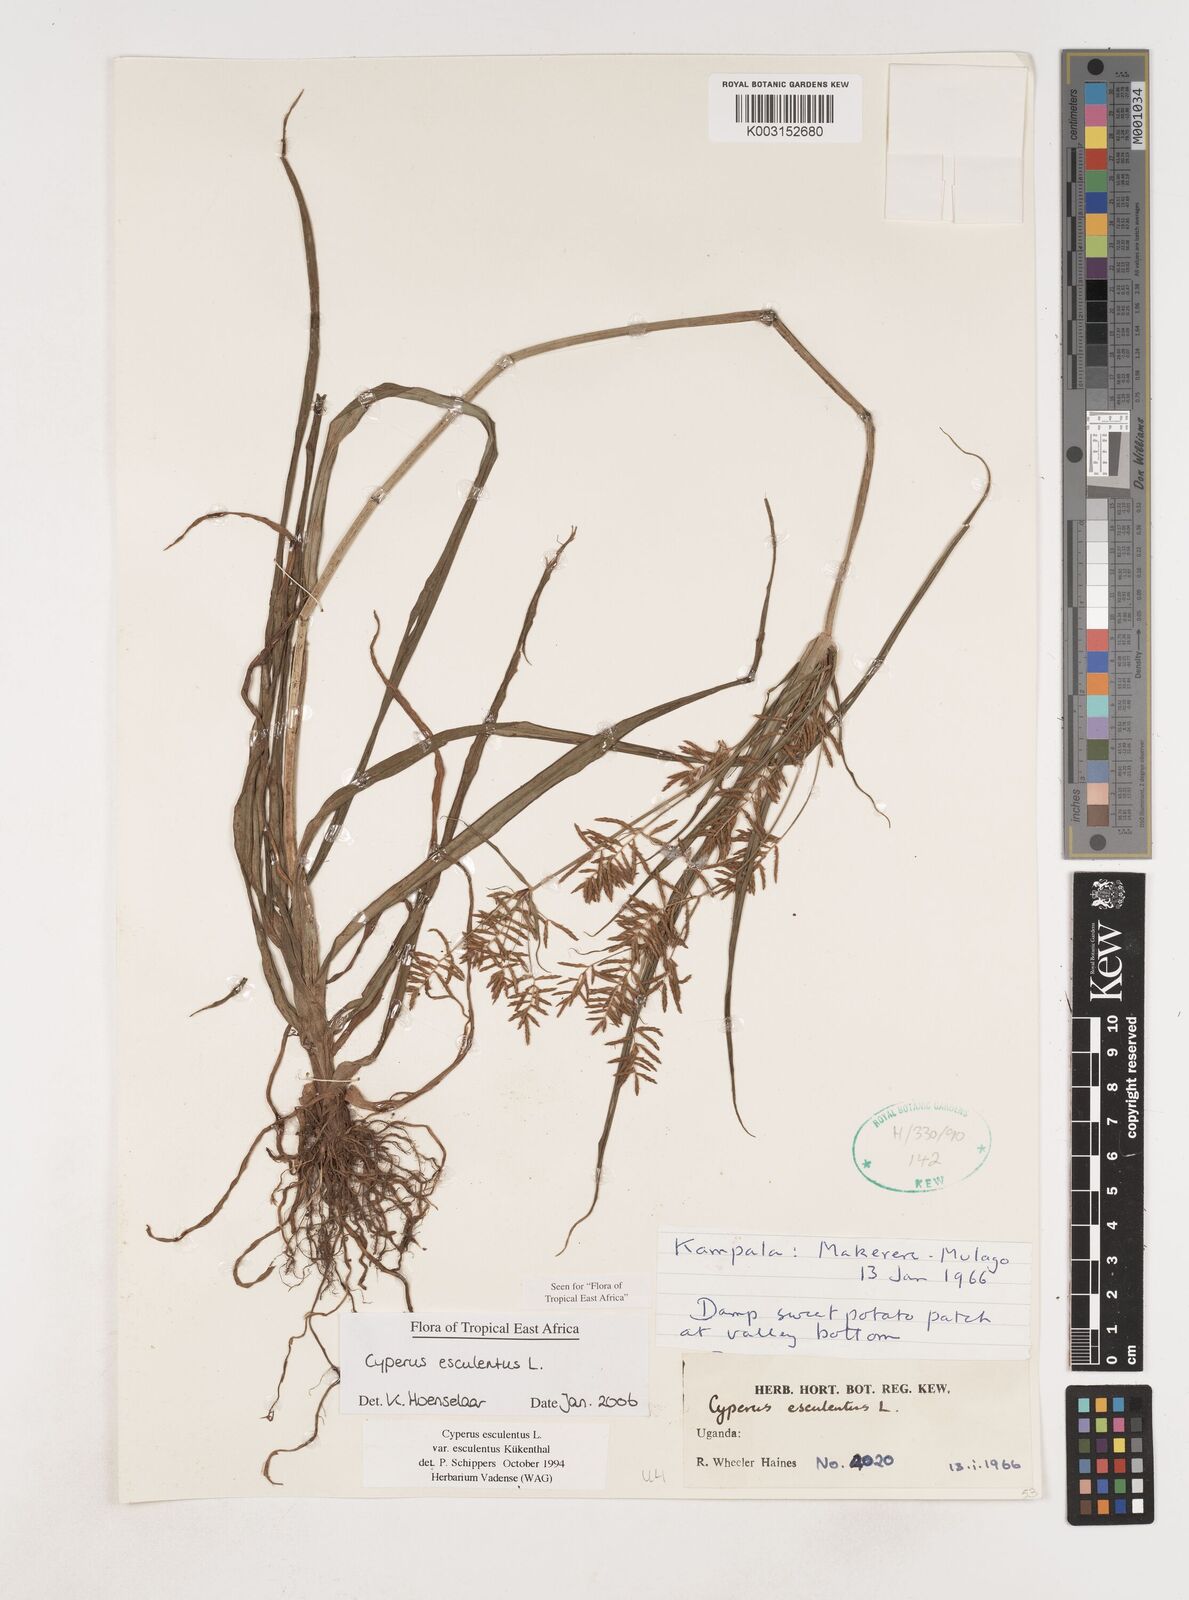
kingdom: Plantae
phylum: Tracheophyta
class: Liliopsida
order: Poales
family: Cyperaceae
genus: Cyperus
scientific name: Cyperus esculentus
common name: Yellow nutsedge
